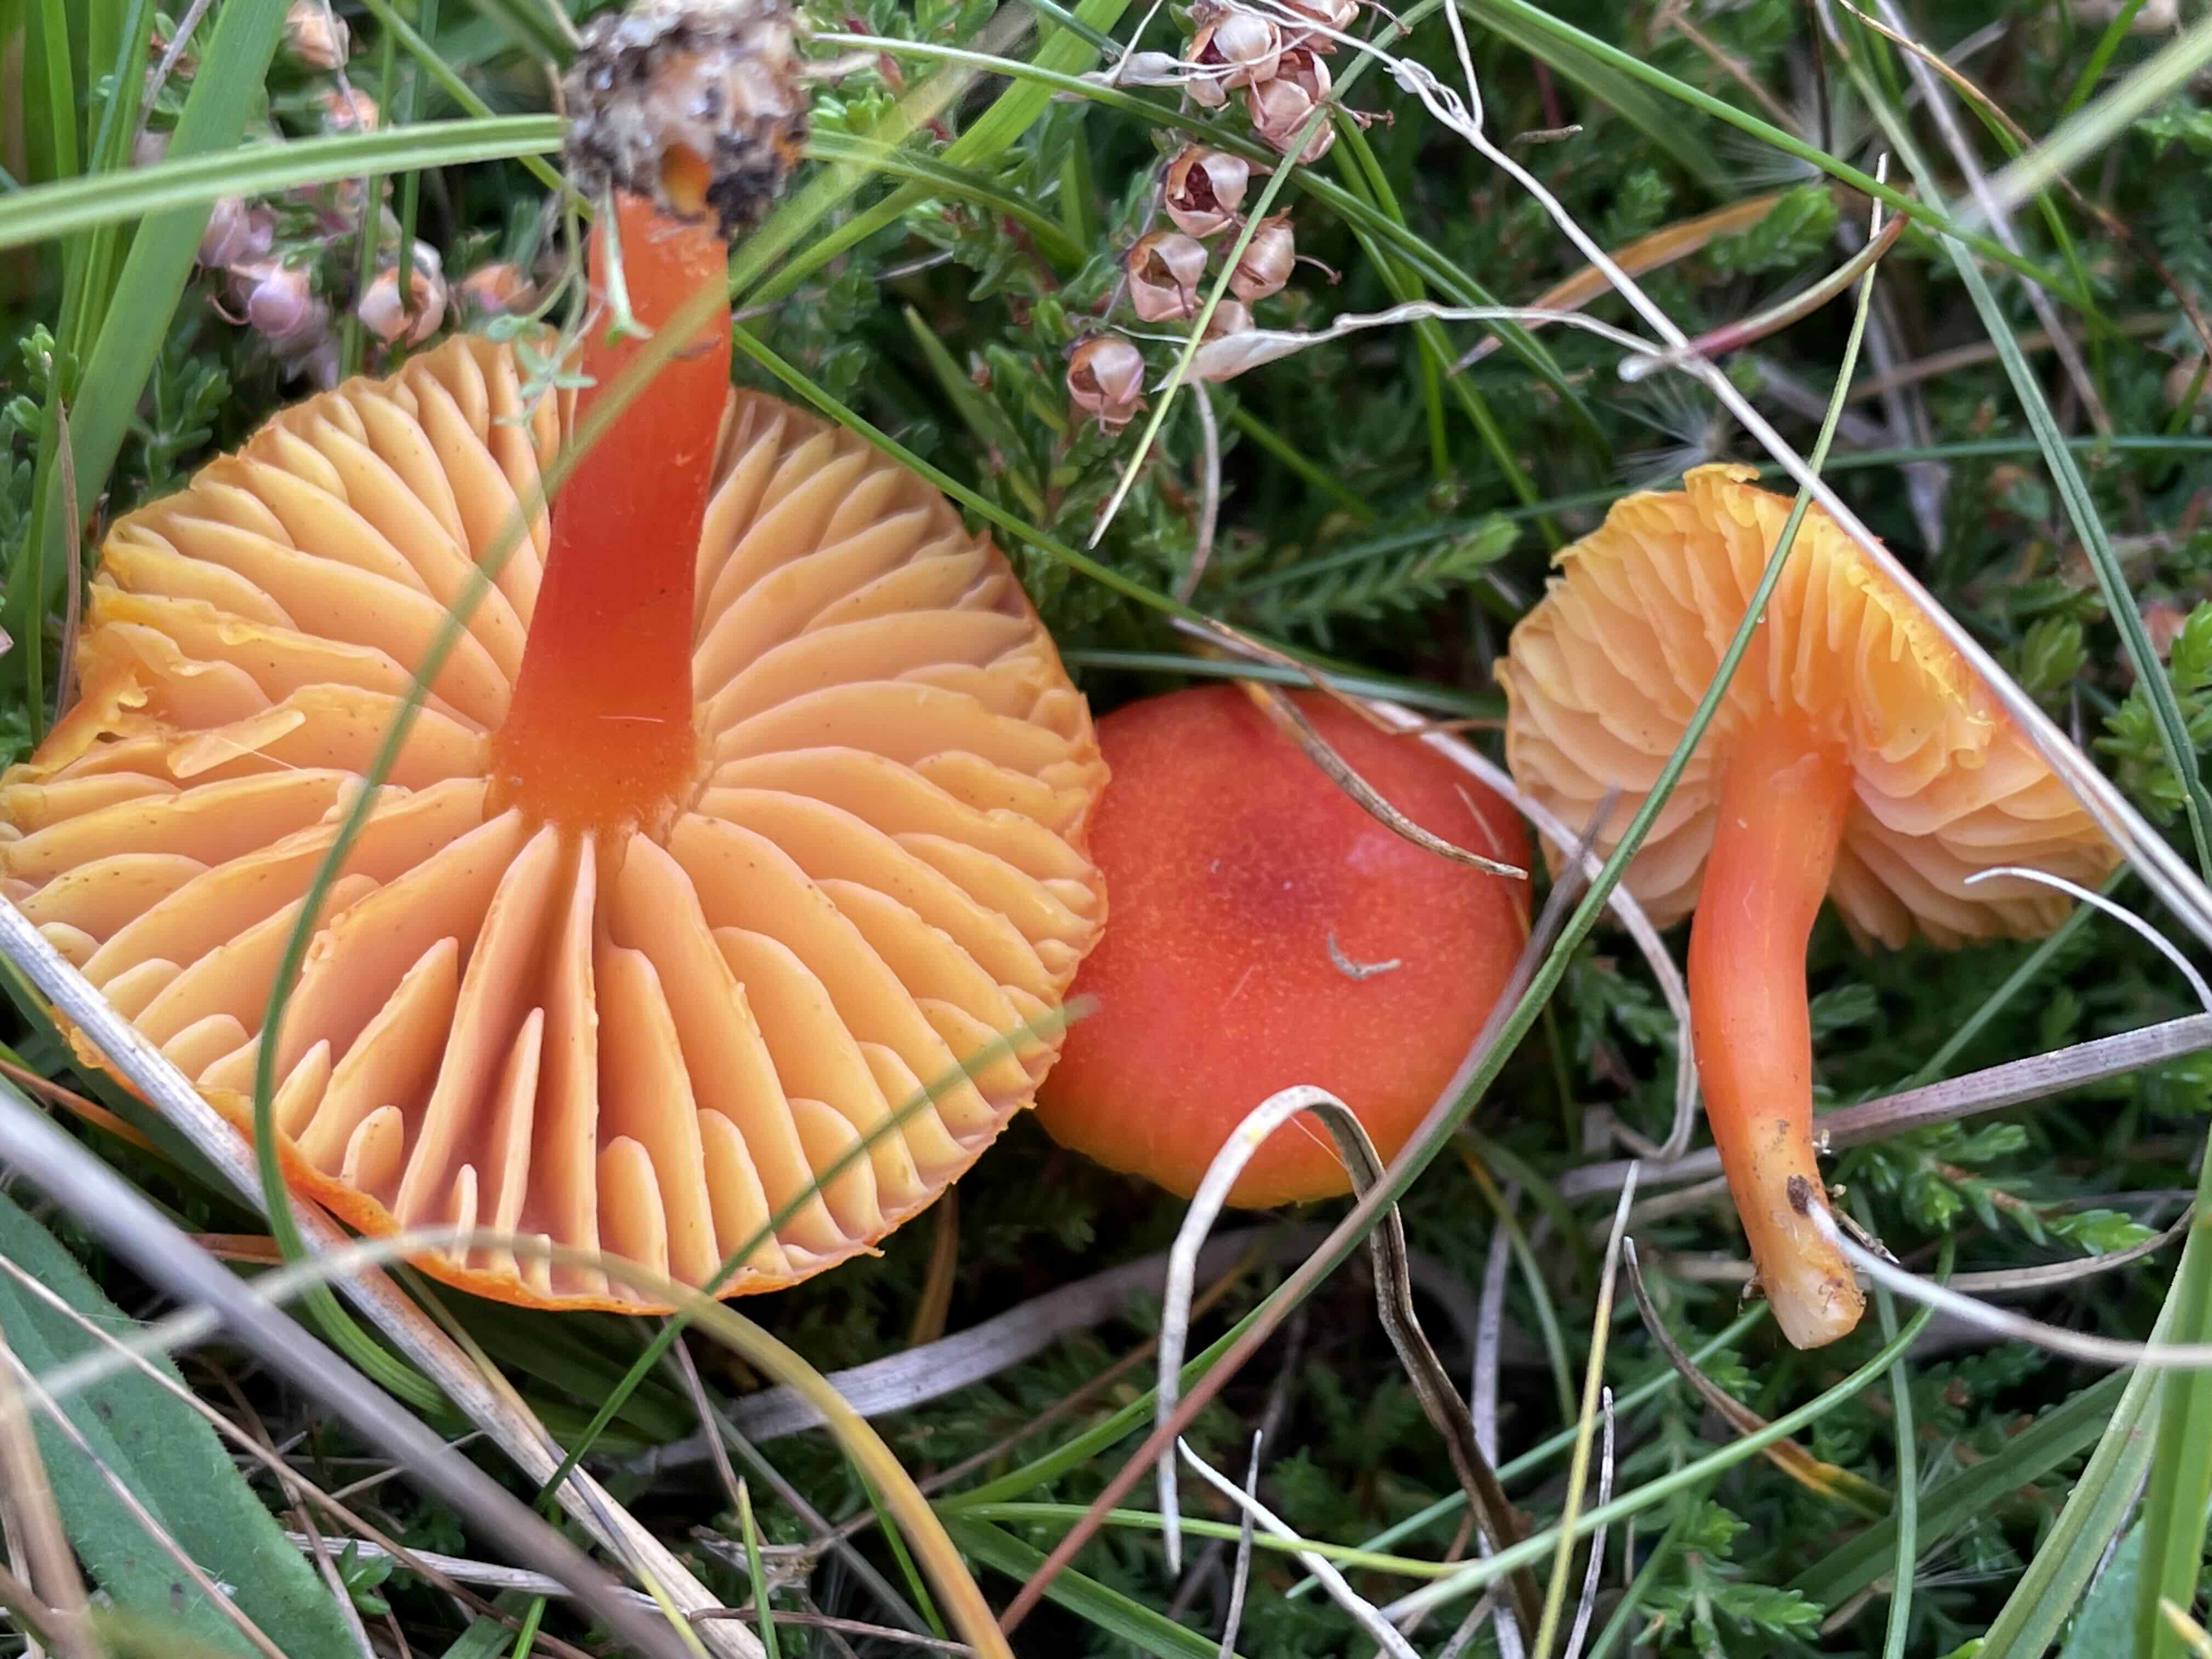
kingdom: Fungi
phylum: Basidiomycota
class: Agaricomycetes
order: Agaricales
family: Hygrophoraceae
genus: Hygrocybe
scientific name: Hygrocybe miniata
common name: mønje-vokshat
